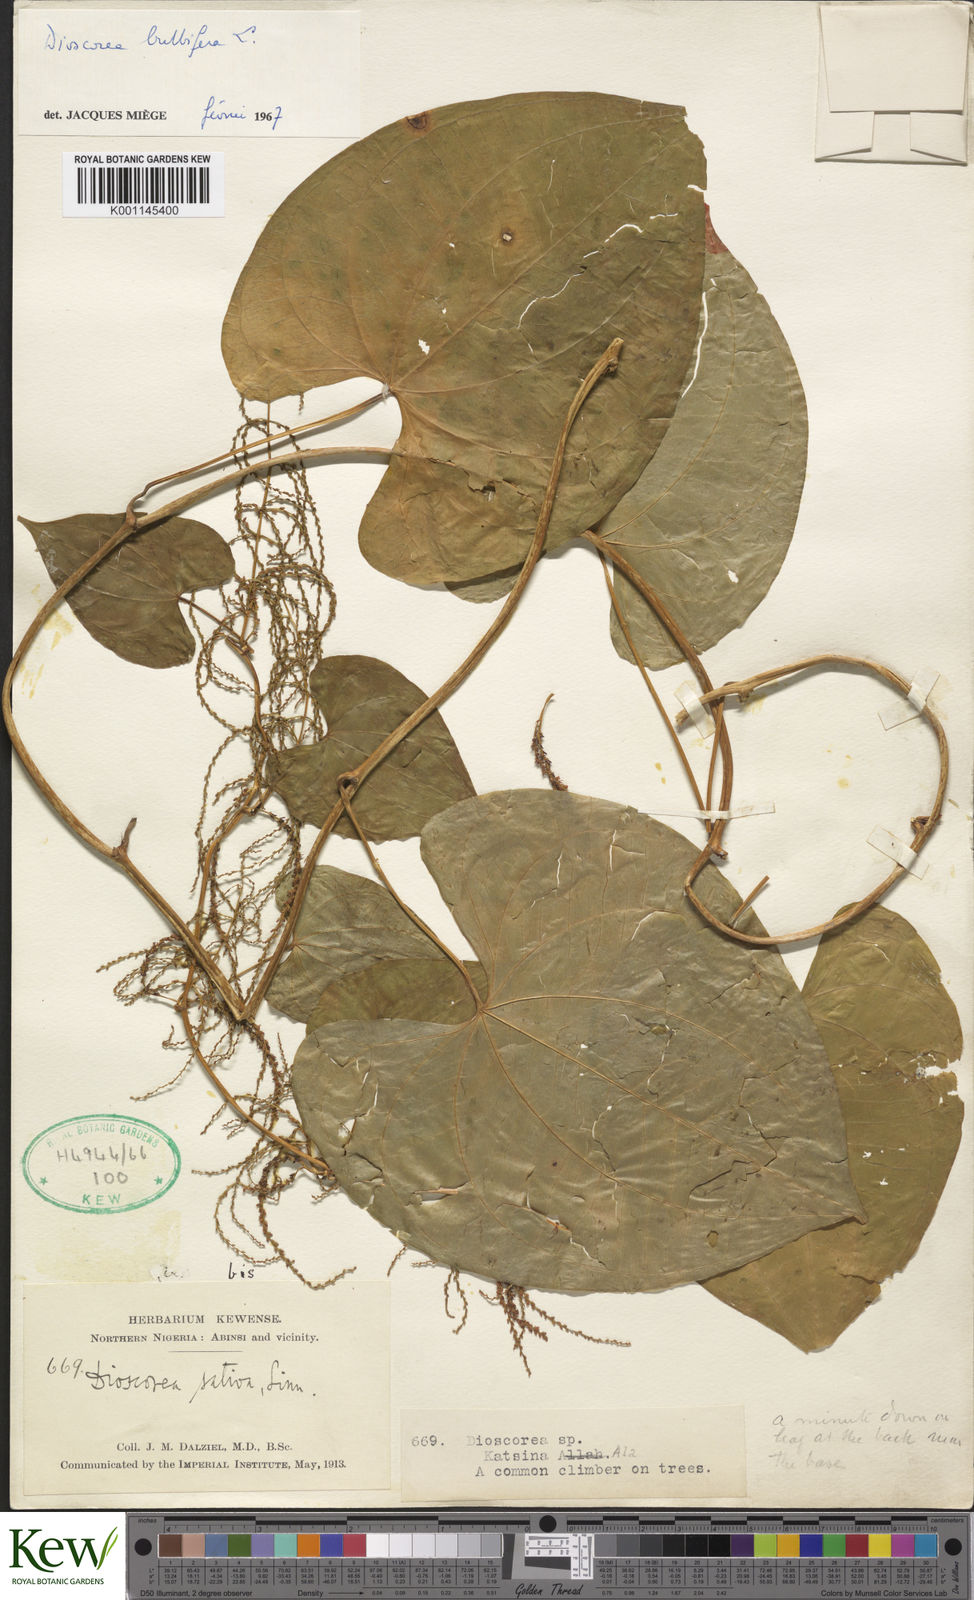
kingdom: Plantae
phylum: Tracheophyta
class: Liliopsida
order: Dioscoreales
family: Dioscoreaceae
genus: Dioscorea
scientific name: Dioscorea bulbifera
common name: Air yam
